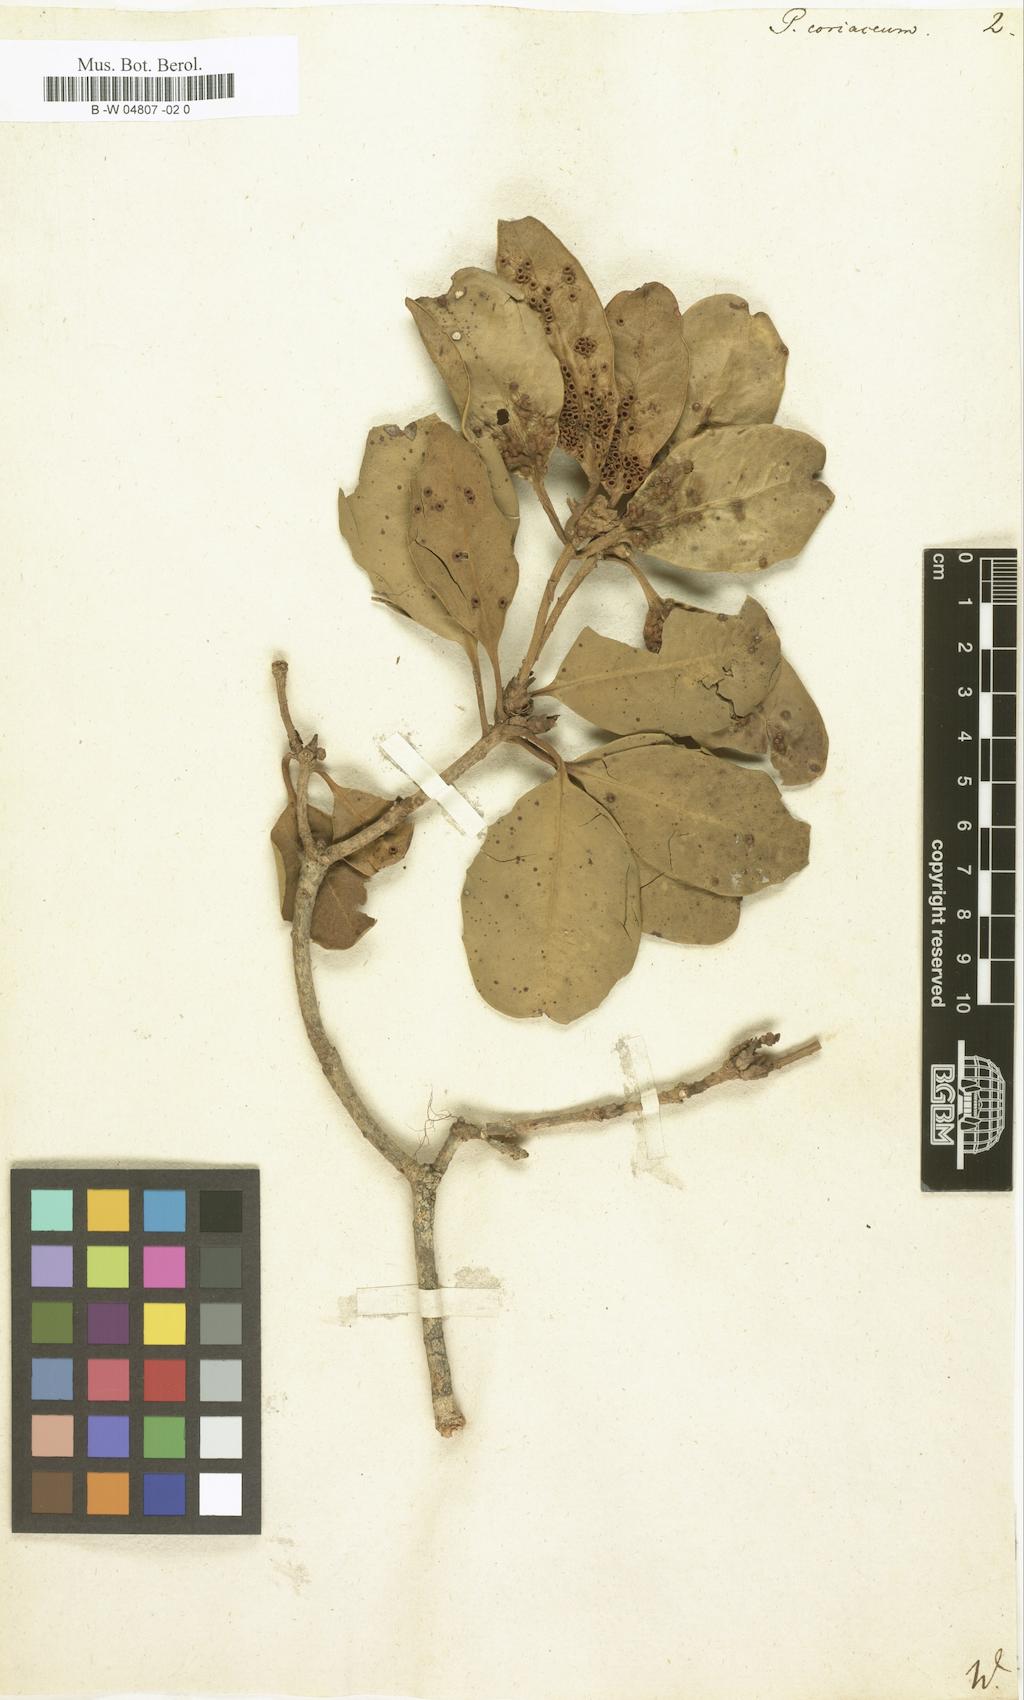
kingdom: Plantae
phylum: Tracheophyta
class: Magnoliopsida
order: Apiales
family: Pittosporaceae
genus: Pittosporum
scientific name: Pittosporum coriaceum
